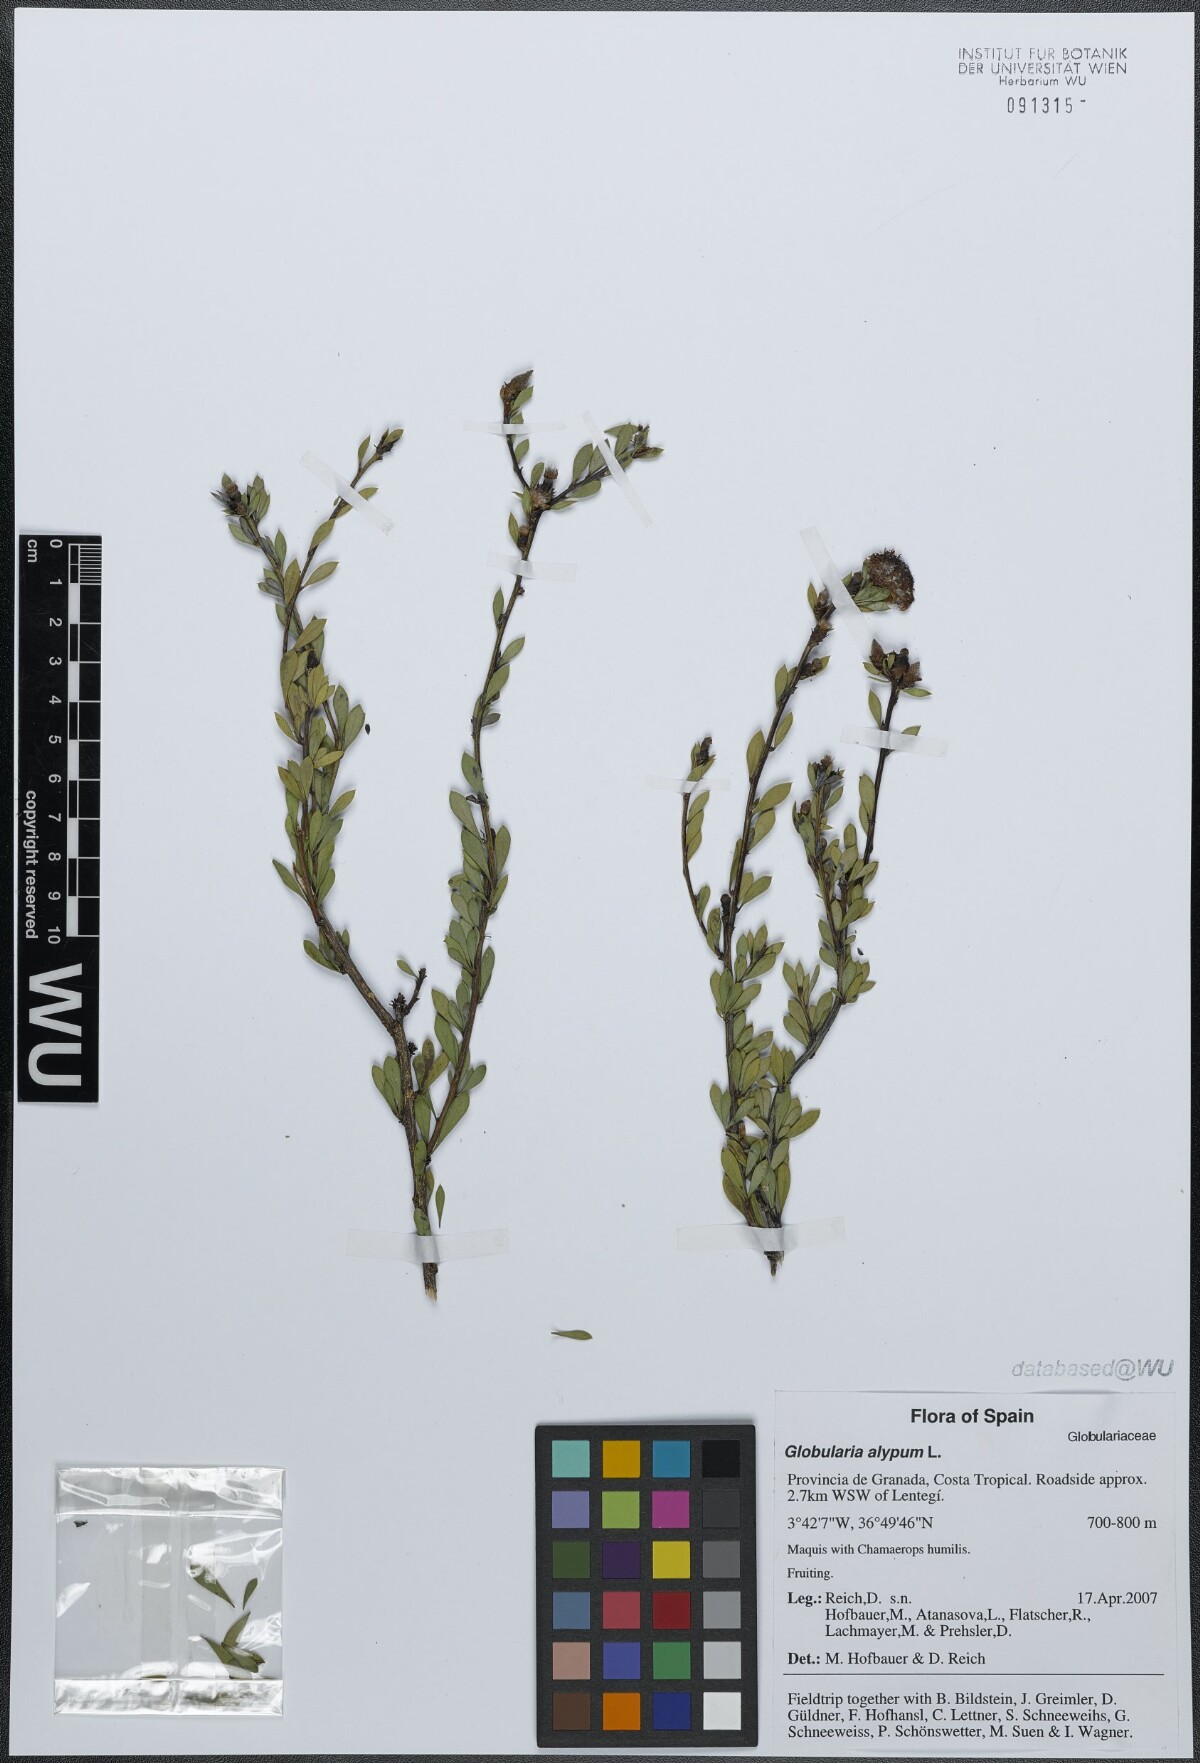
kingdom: Plantae
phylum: Tracheophyta
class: Magnoliopsida
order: Lamiales
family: Plantaginaceae
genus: Globularia
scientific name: Globularia alypum
